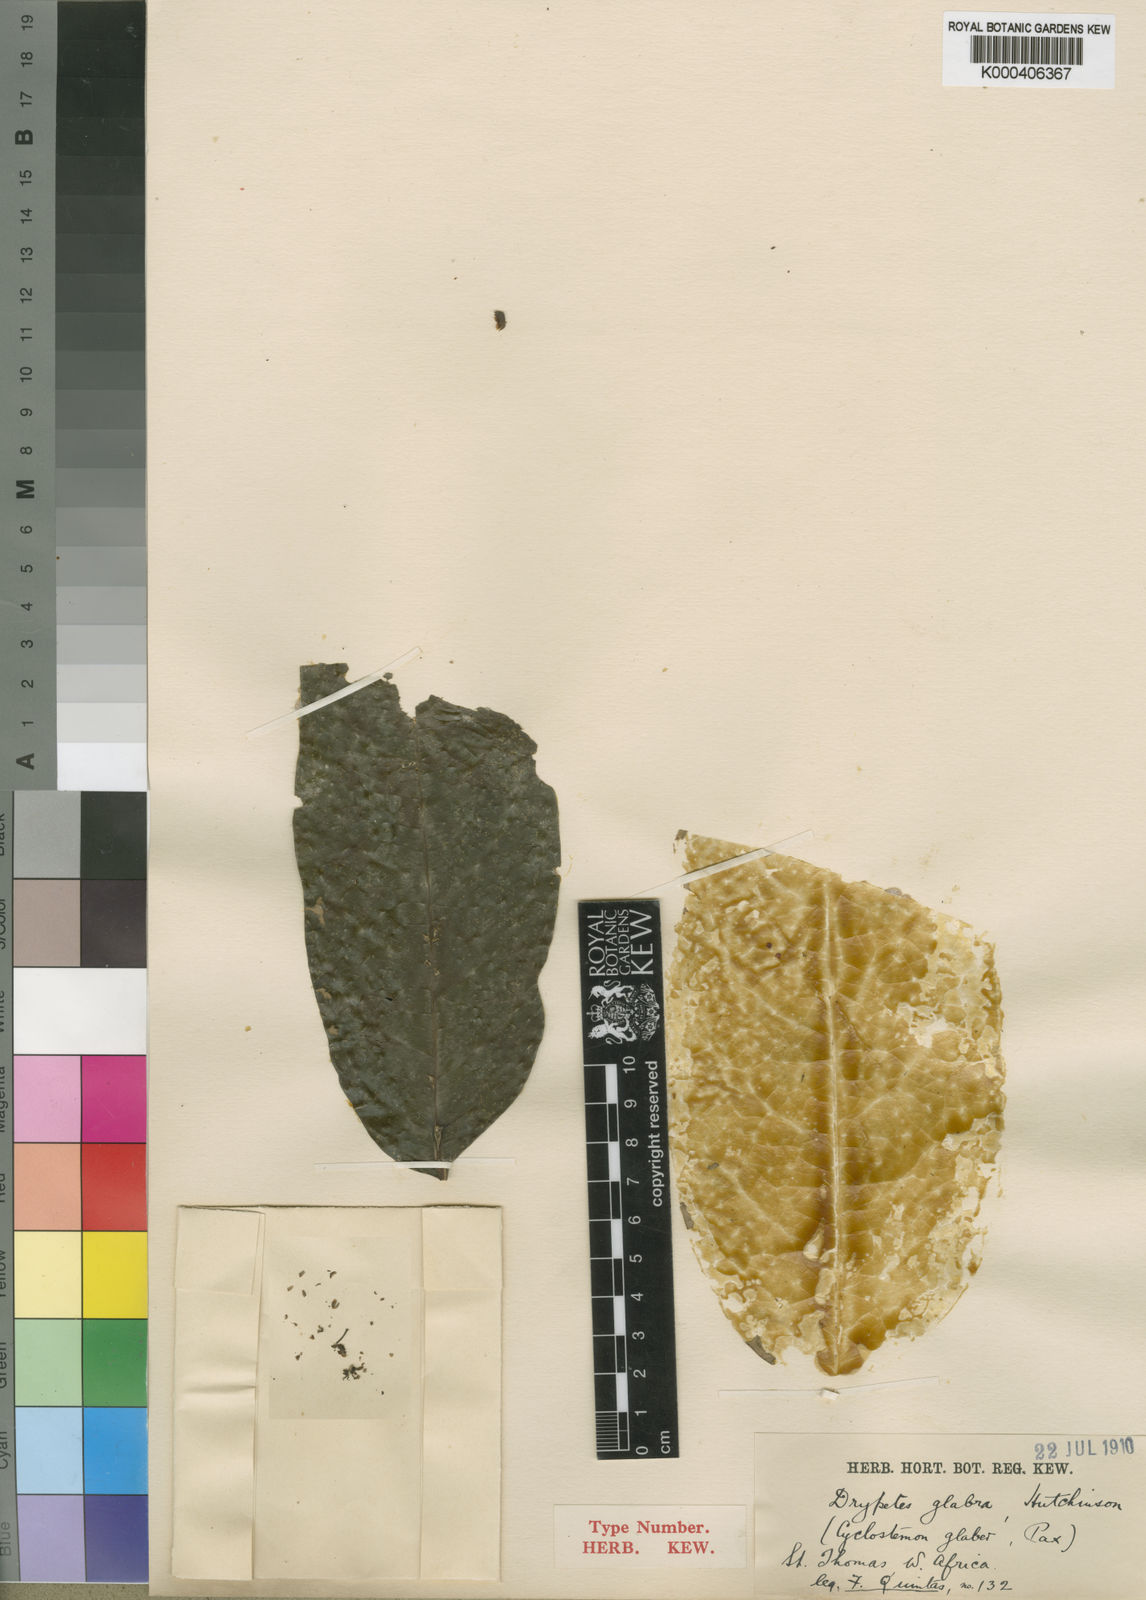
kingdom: Plantae
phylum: Tracheophyta
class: Magnoliopsida
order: Malpighiales
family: Putranjivaceae
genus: Drypetes
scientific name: Drypetes glabra
